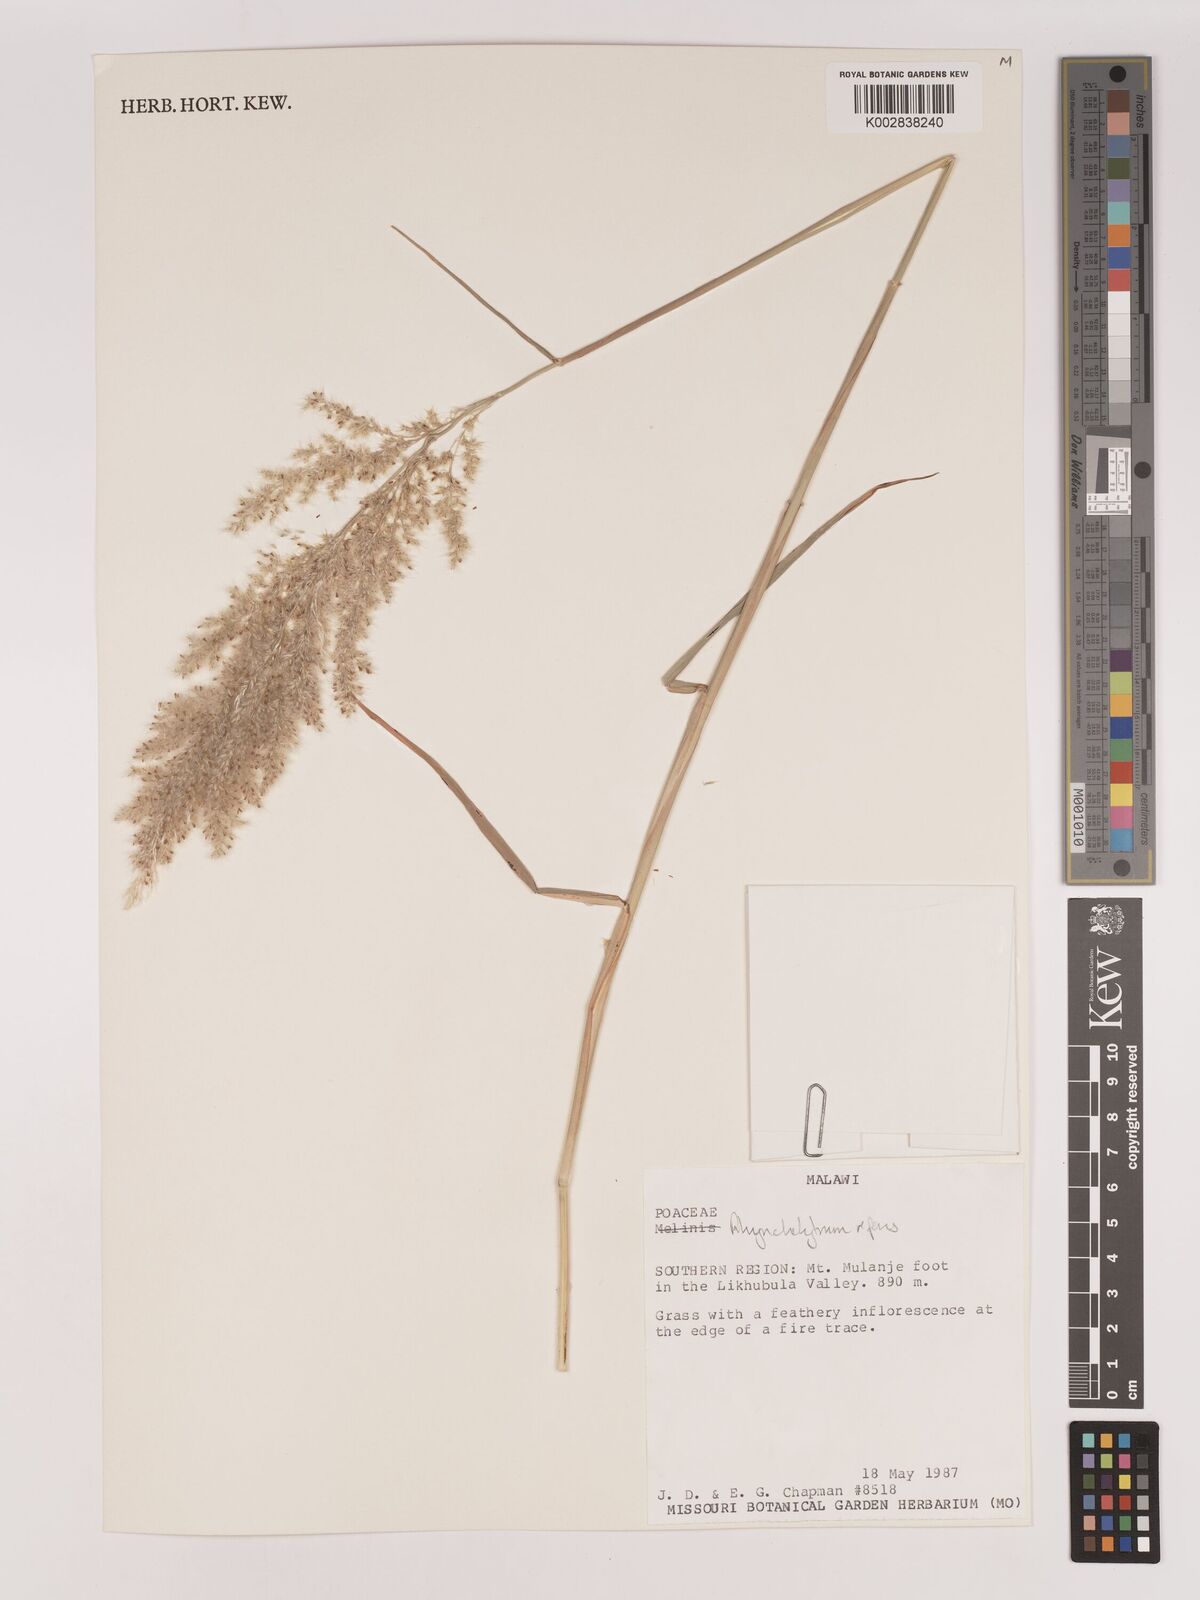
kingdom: Plantae
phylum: Tracheophyta
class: Liliopsida
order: Poales
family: Poaceae
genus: Melinis
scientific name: Melinis repens
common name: Rose natal grass
